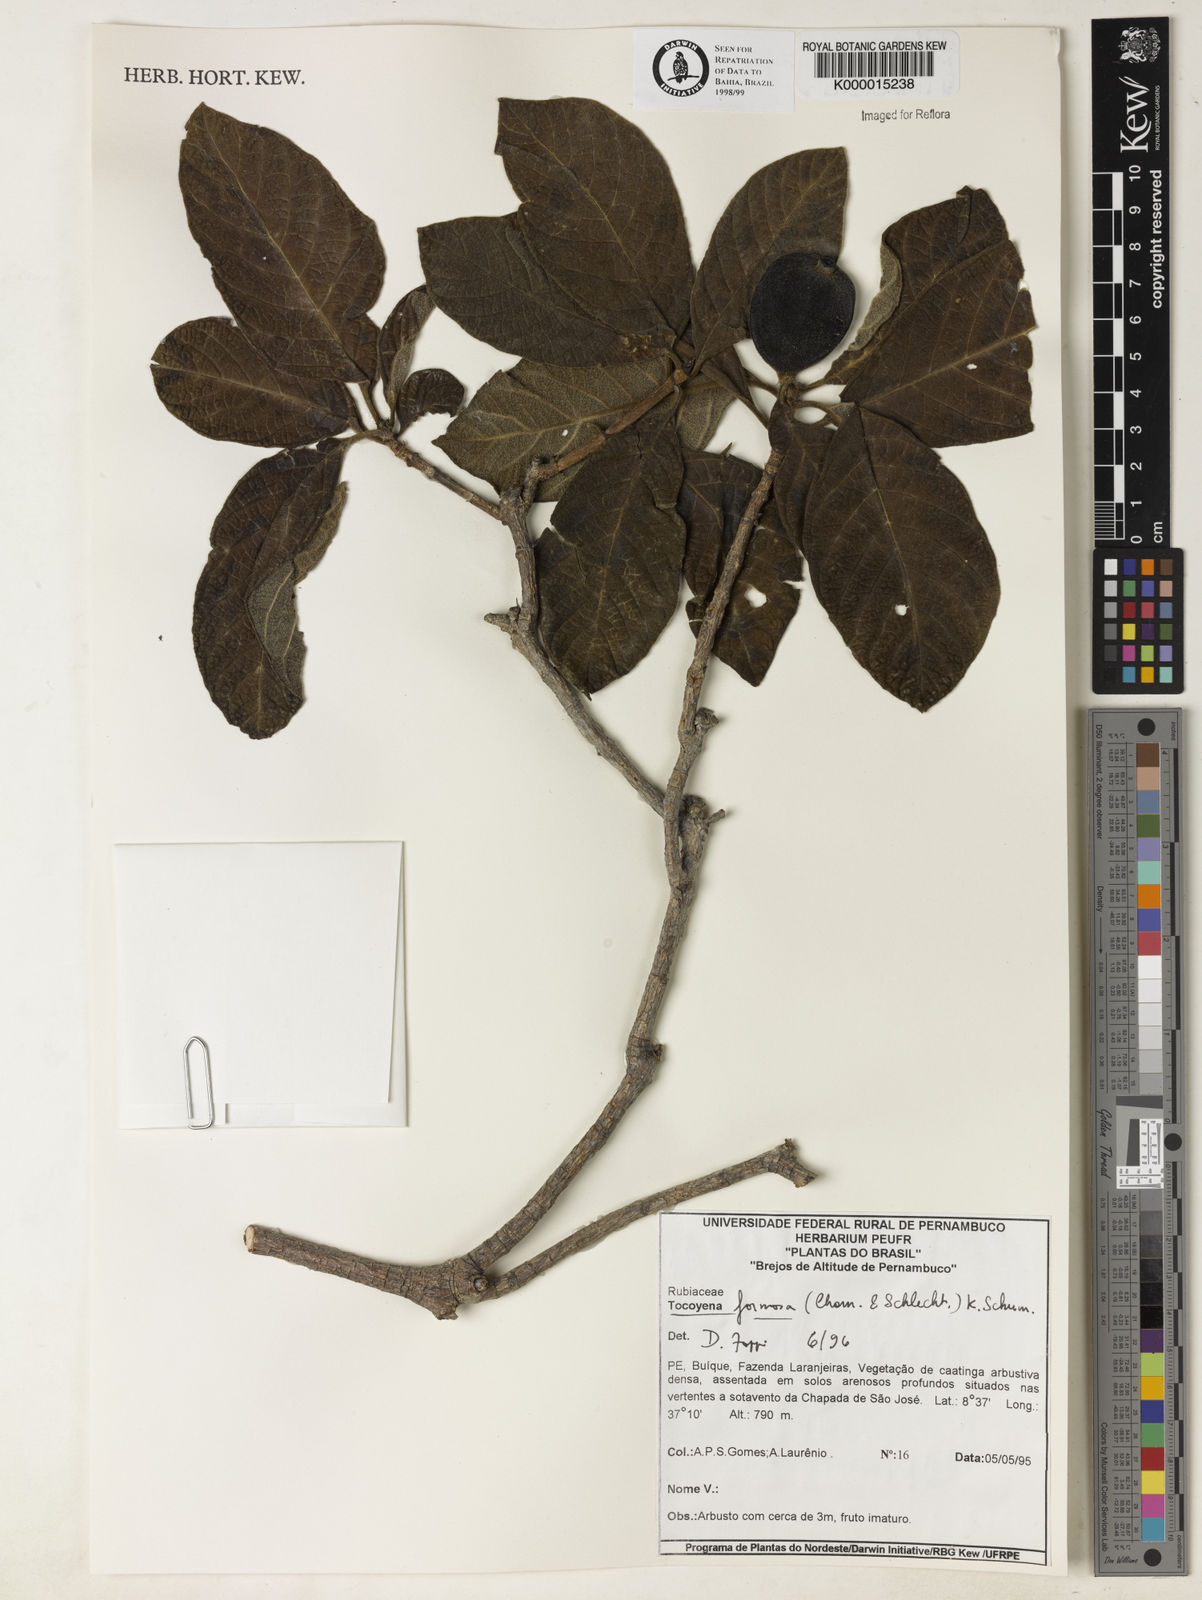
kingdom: Plantae
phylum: Tracheophyta
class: Magnoliopsida
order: Gentianales
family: Rubiaceae
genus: Tocoyena
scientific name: Tocoyena formosa
